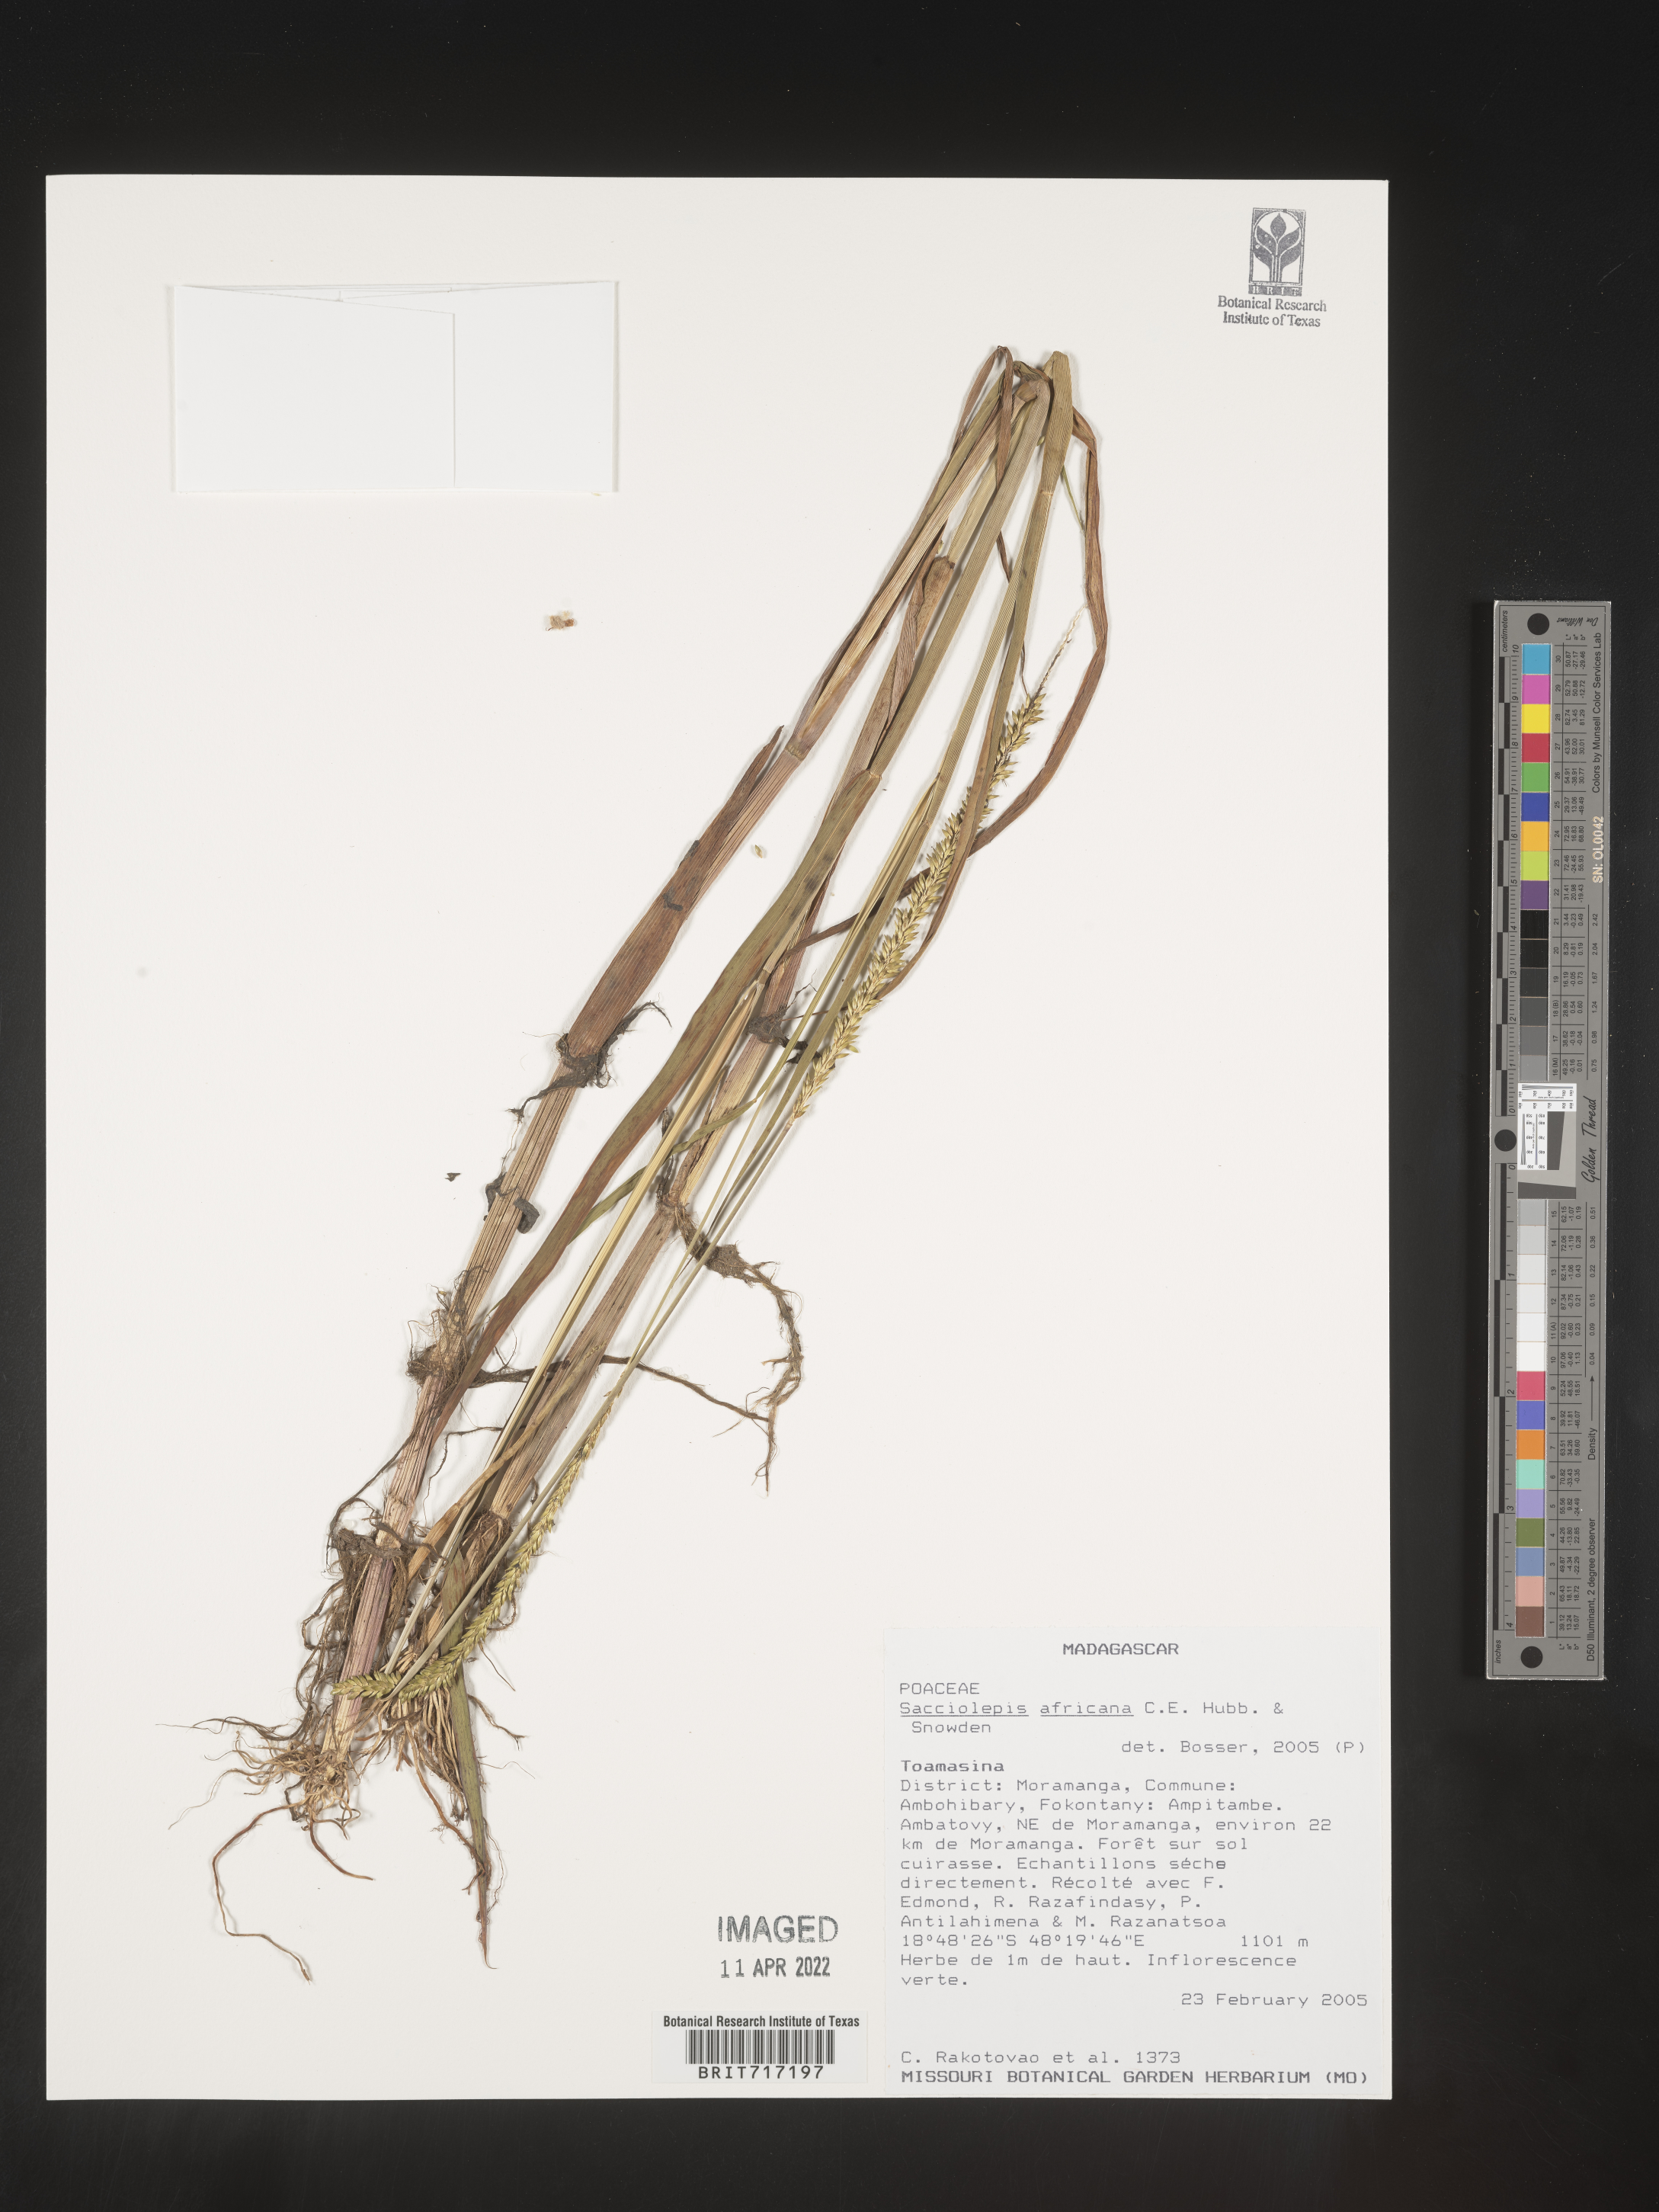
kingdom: Plantae
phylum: Tracheophyta
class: Liliopsida
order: Poales
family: Poaceae
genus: Sacciolepis
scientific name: Sacciolepis
